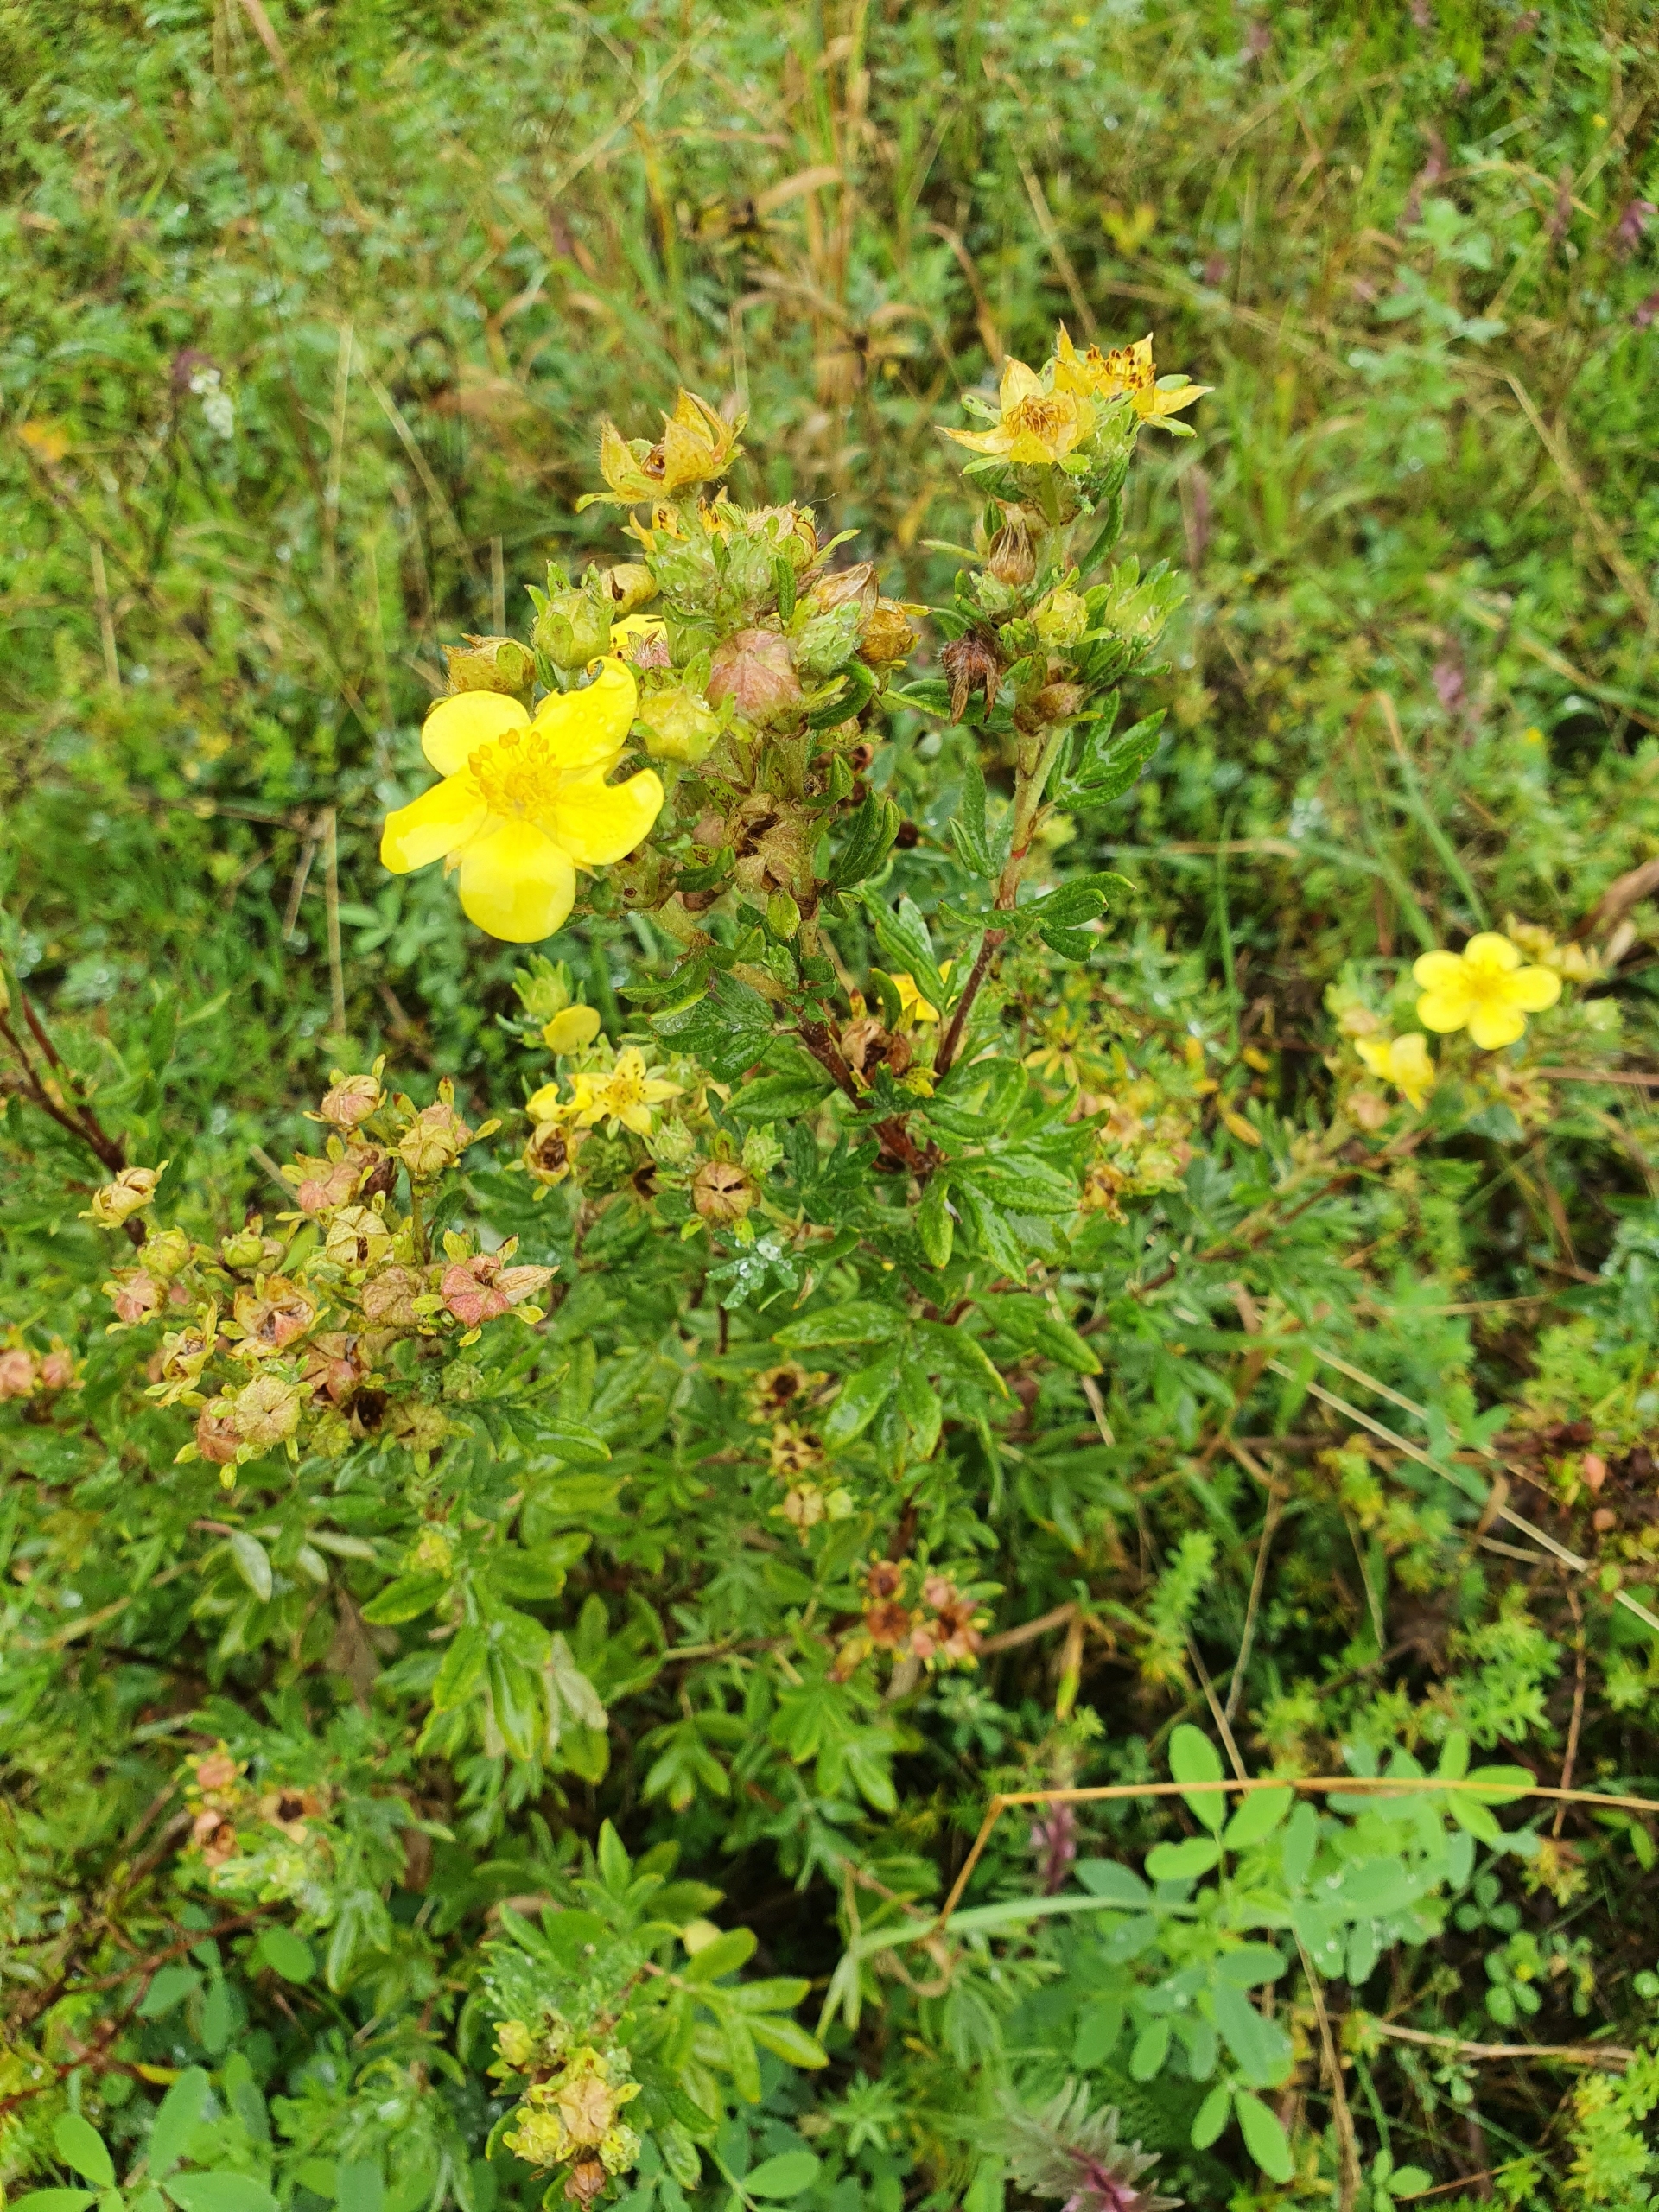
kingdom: Plantae
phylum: Tracheophyta
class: Magnoliopsida
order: Rosales
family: Rosaceae
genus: Dasiphora
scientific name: Dasiphora fruticosa
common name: Buskpotentil
